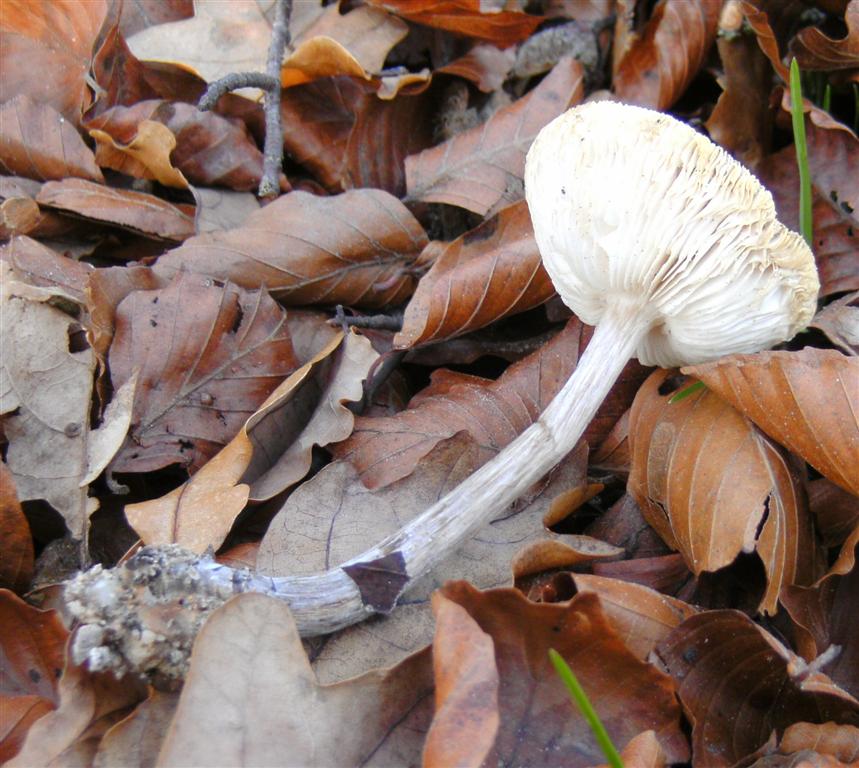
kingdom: Fungi
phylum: Basidiomycota
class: Agaricomycetes
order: Agaricales
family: Tricholomataceae
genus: Melanoleuca
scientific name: Melanoleuca polioleuca
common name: hvidbladet munkehat
